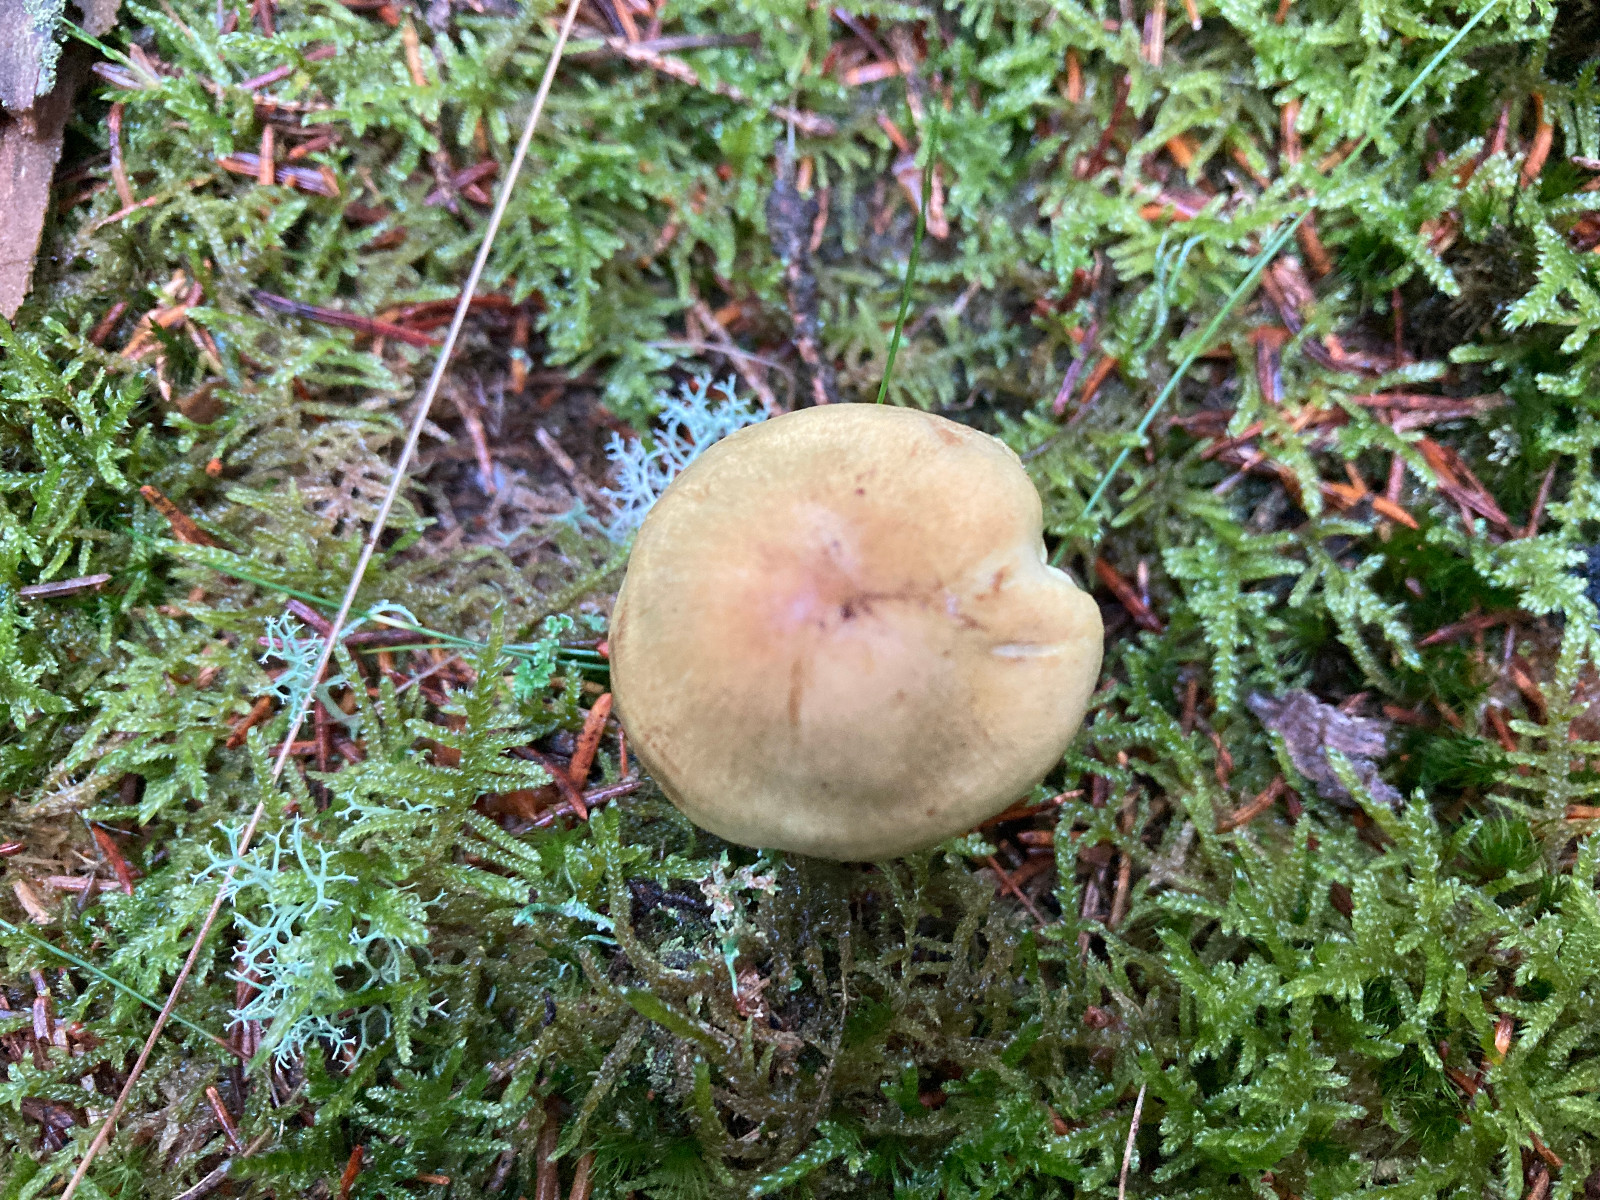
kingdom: Fungi
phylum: Basidiomycota
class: Agaricomycetes
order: Agaricales
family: Tricholomataceae
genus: Tricholoma
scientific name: Tricholoma aestuans
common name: kegle-ridderhat
